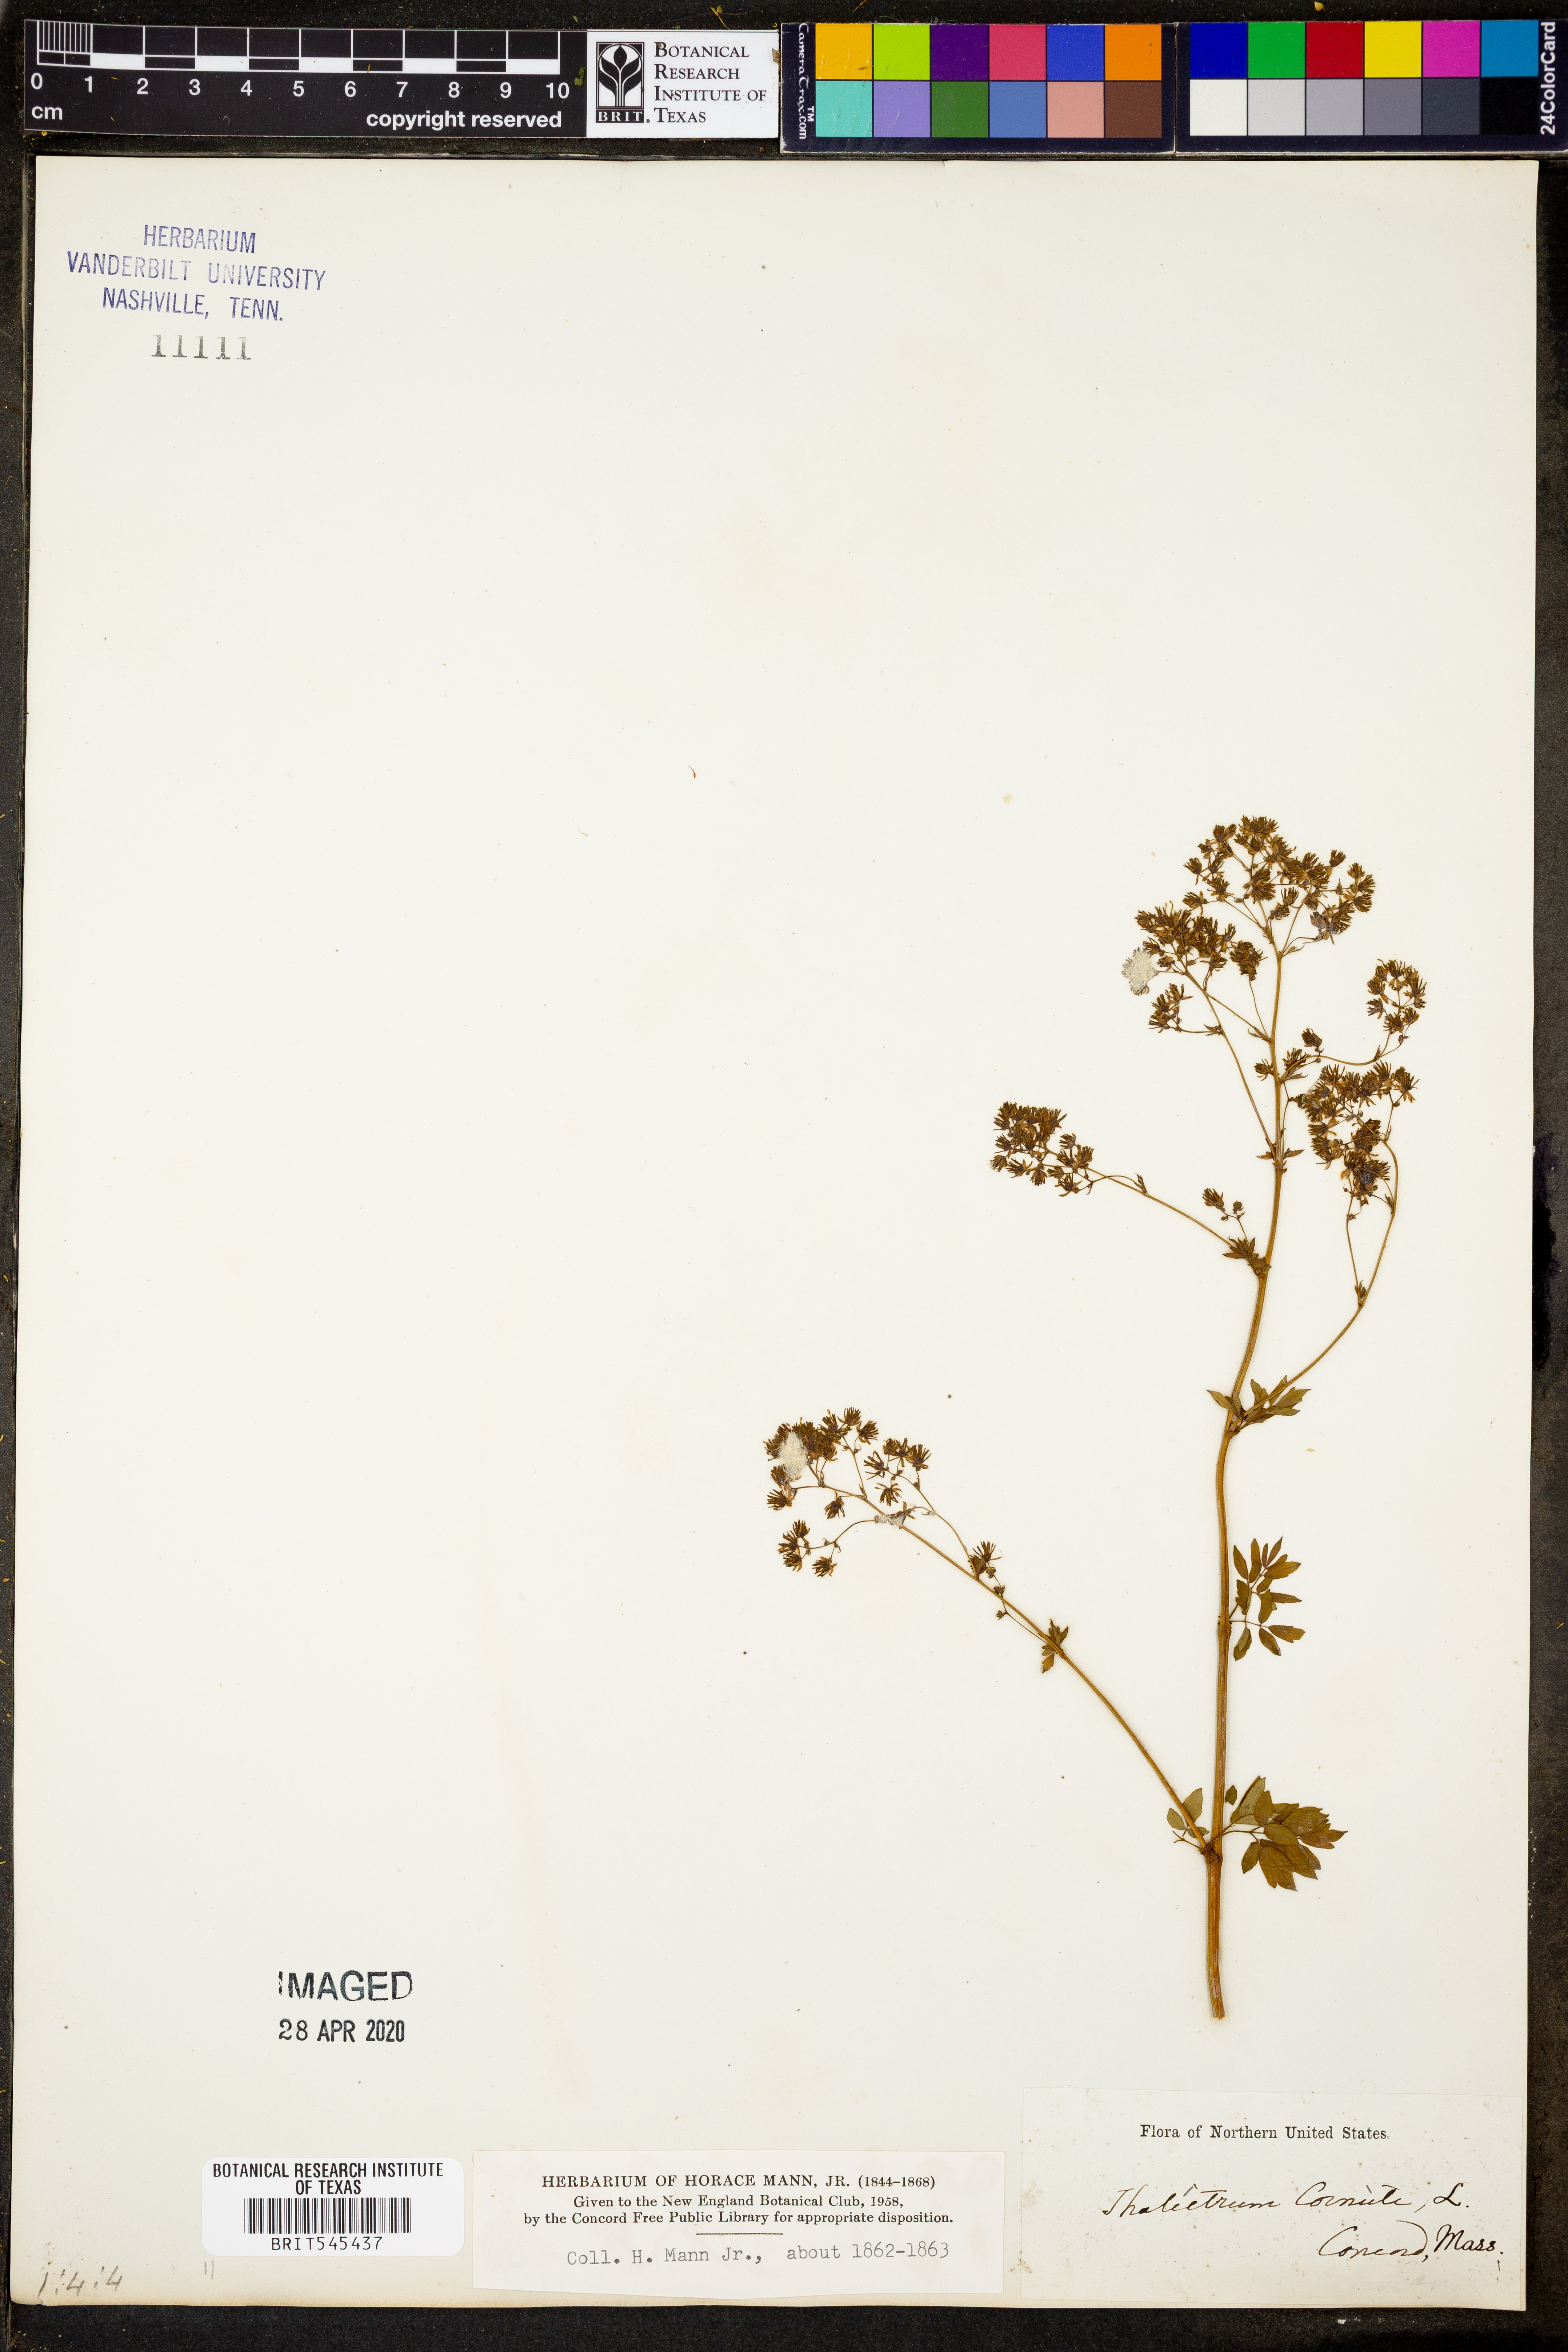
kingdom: Plantae
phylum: Tracheophyta
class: Magnoliopsida
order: Ranunculales
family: Ranunculaceae
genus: Thalictrum
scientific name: Thalictrum aquilegiifolium
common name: French meadow-rue
